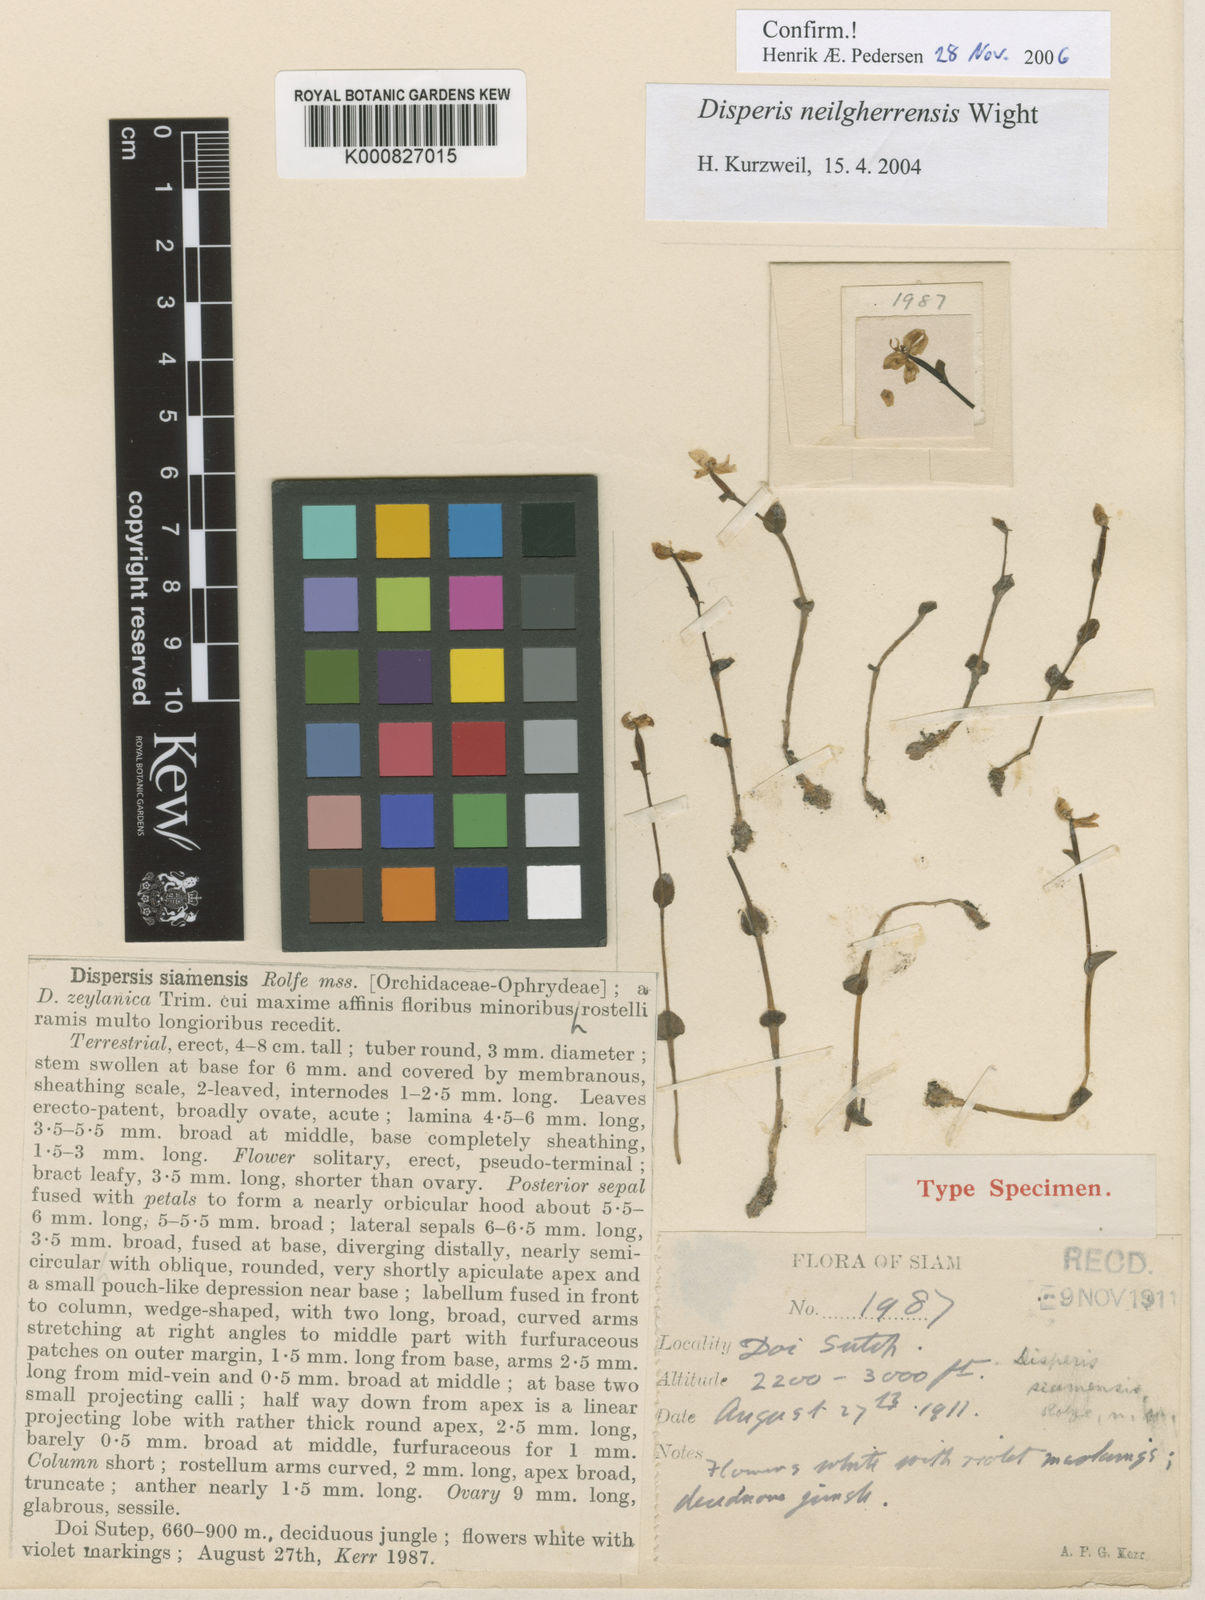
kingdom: Plantae
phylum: Tracheophyta
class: Liliopsida
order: Asparagales
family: Orchidaceae
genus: Disperis
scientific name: Disperis neilgherrensis
